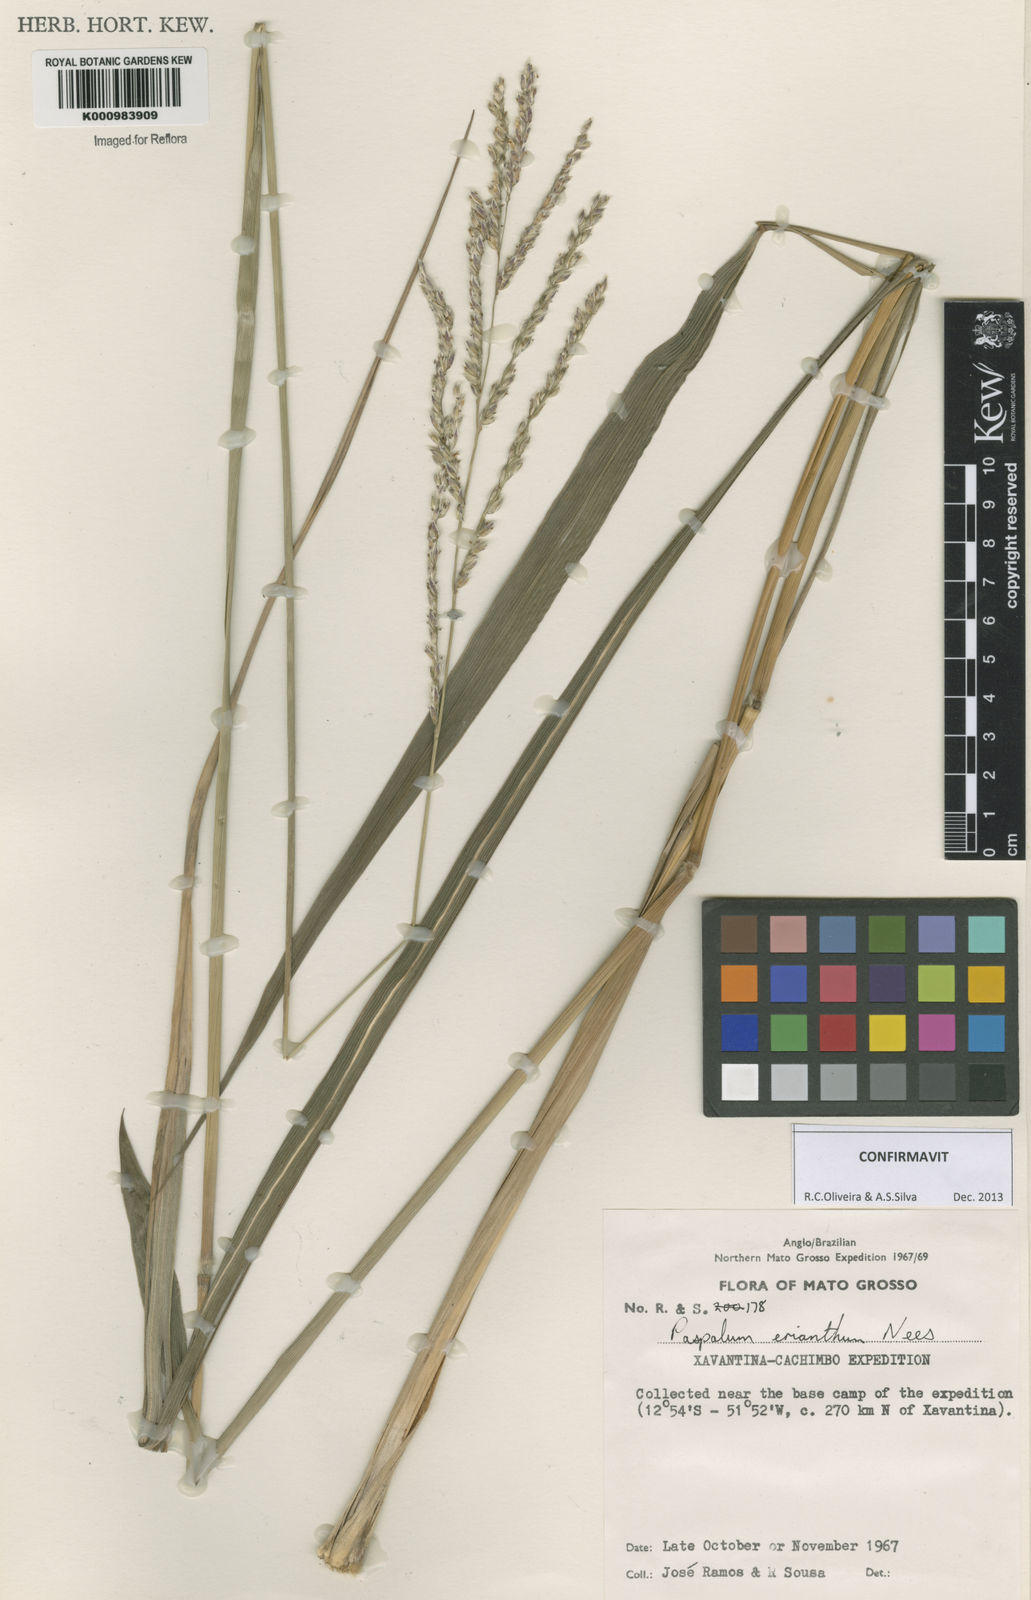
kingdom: Plantae
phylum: Tracheophyta
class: Liliopsida
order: Poales
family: Poaceae
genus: Paspalum
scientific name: Paspalum erianthum
